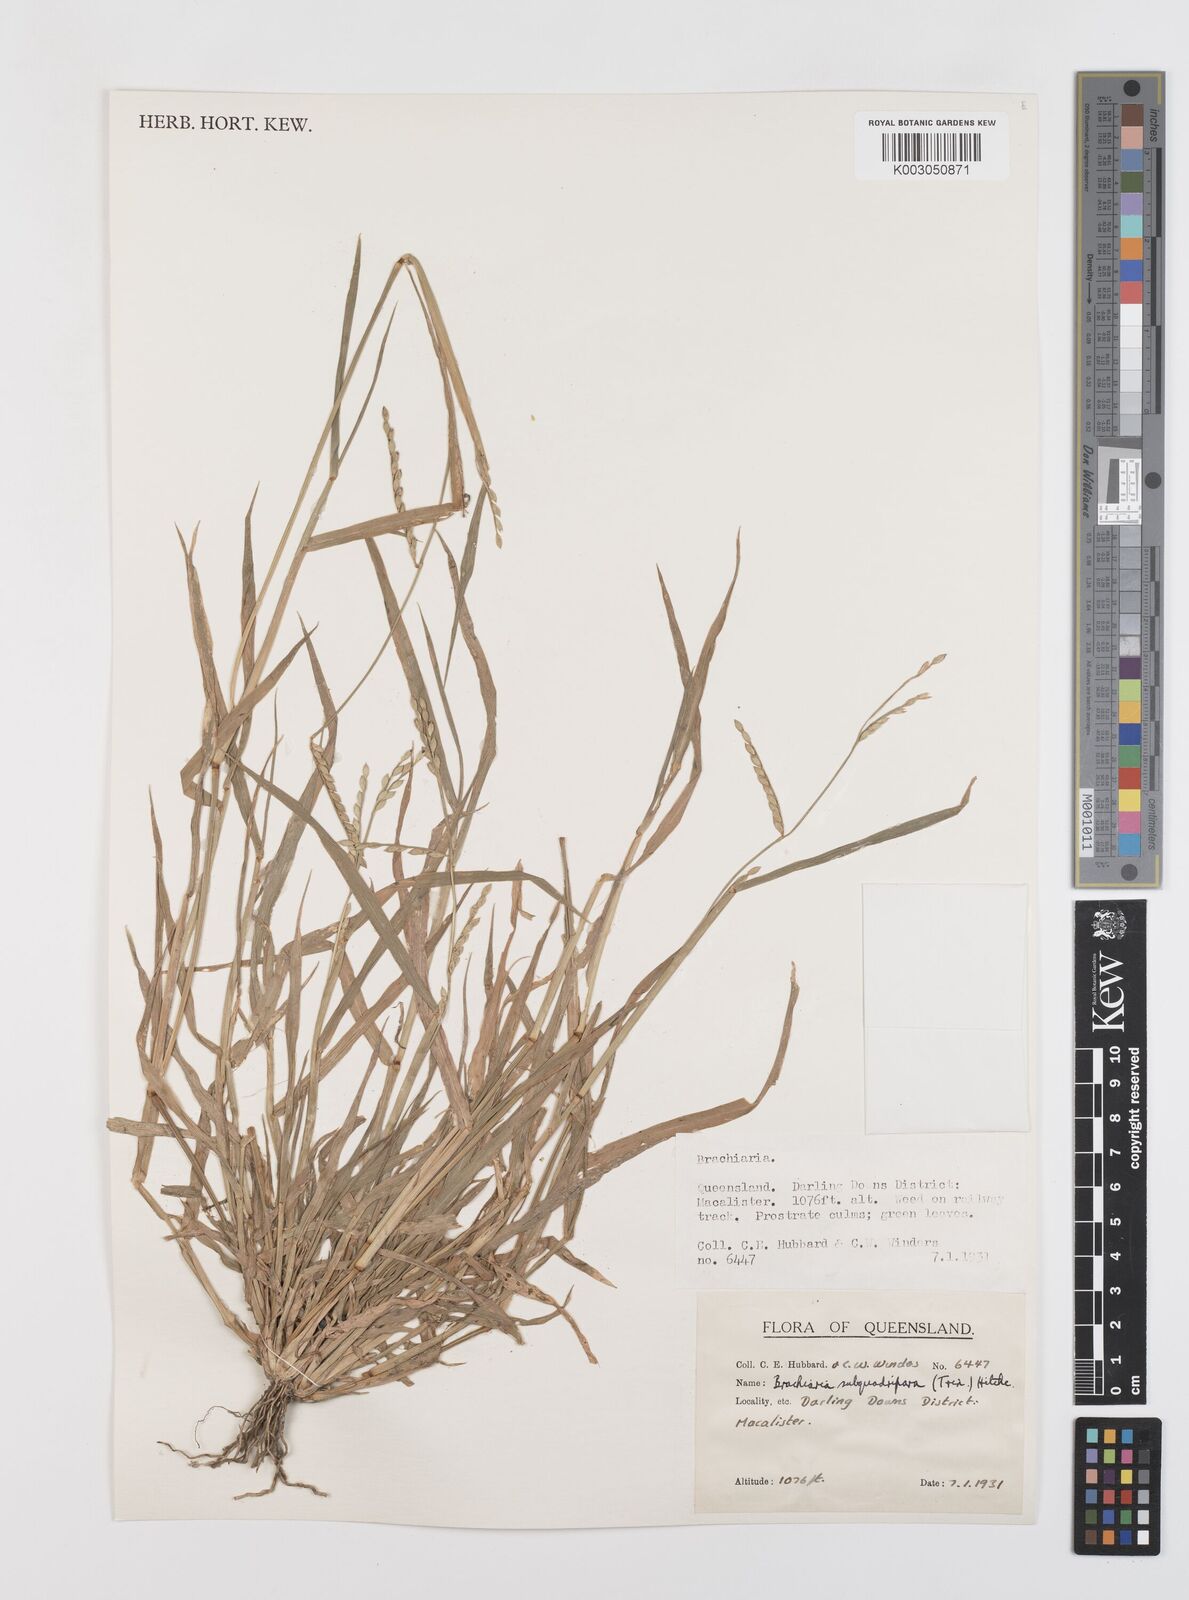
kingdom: Plantae
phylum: Tracheophyta
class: Liliopsida
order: Poales
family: Poaceae
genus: Urochloa
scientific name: Urochloa subquadripara
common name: Armgrass millet
